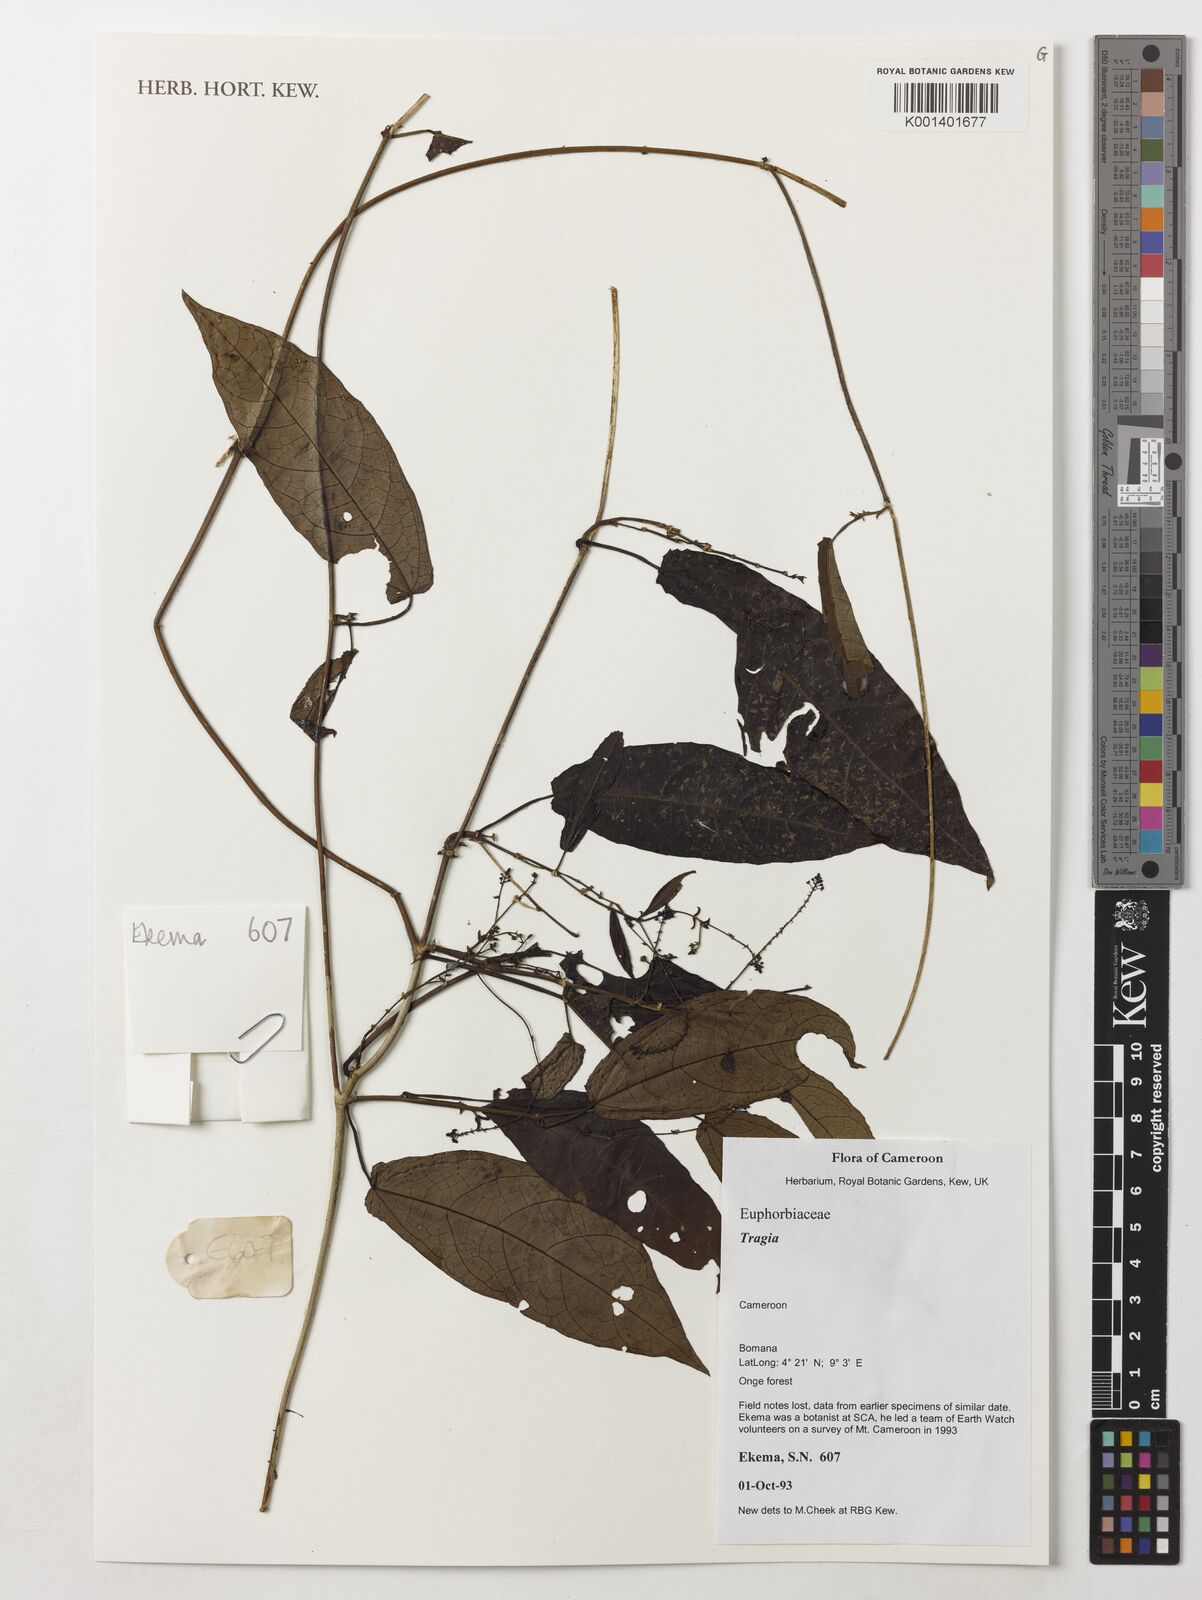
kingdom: Plantae
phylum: Tracheophyta
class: Magnoliopsida
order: Malpighiales
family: Euphorbiaceae
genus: Tragia
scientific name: Tragia
